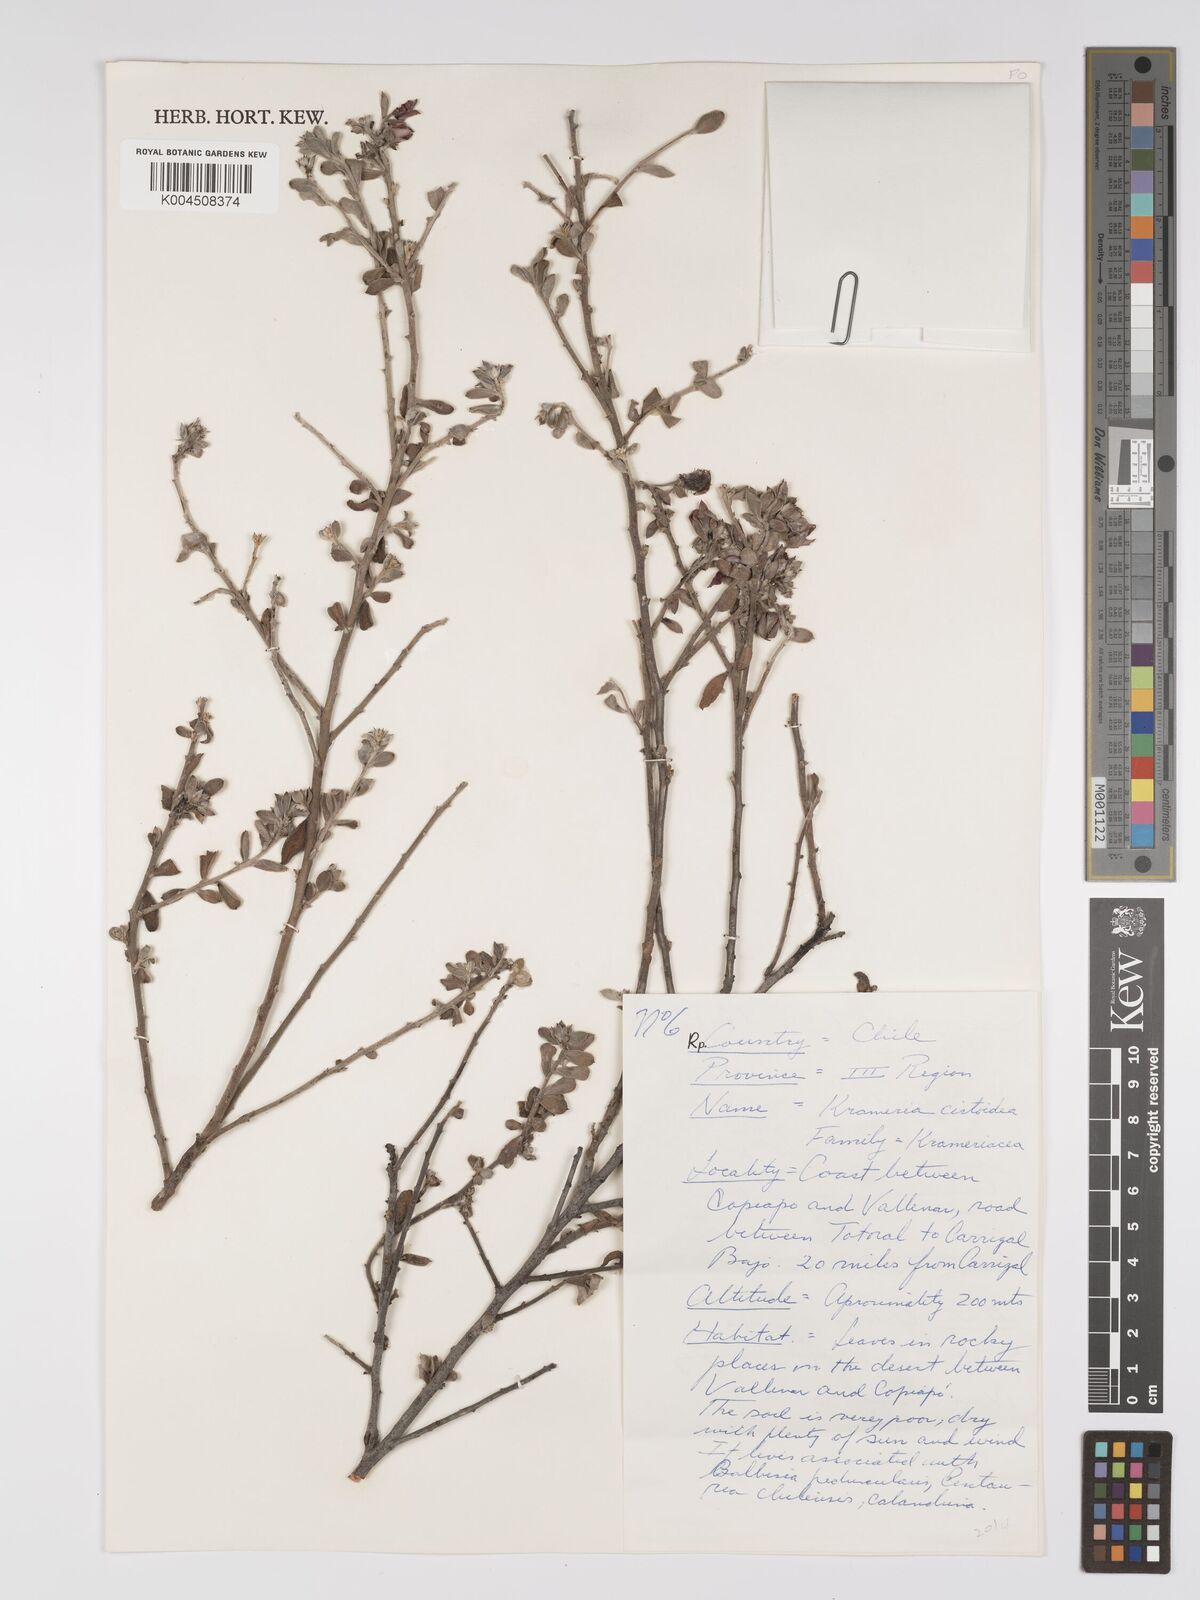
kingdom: Plantae
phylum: Tracheophyta
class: Magnoliopsida
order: Zygophyllales
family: Krameriaceae
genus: Krameria
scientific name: Krameria cistoidea
